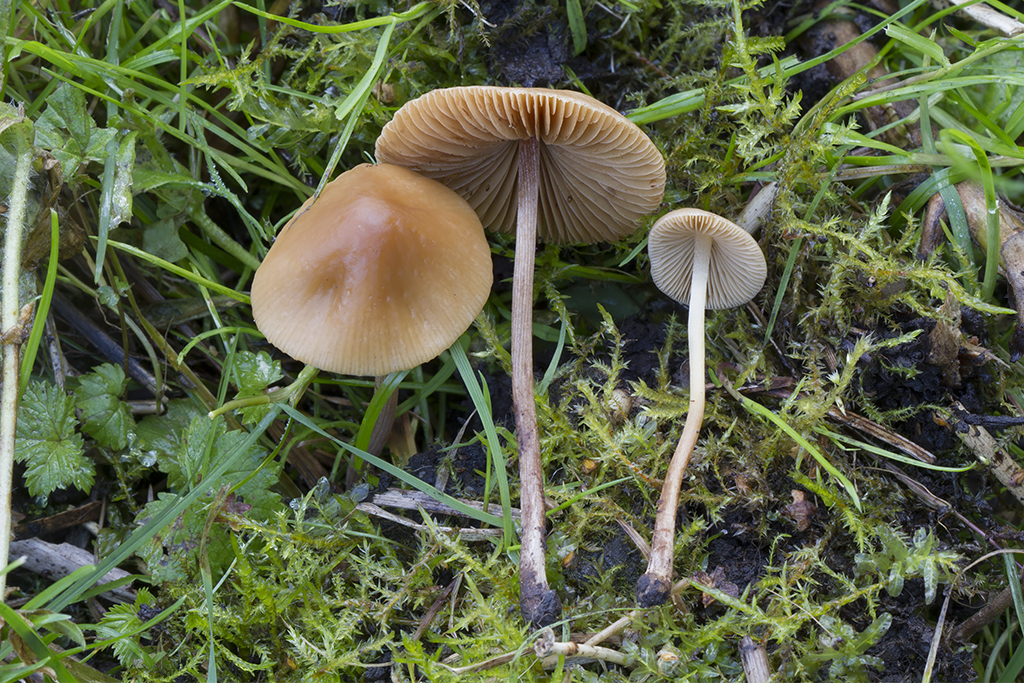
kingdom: Fungi
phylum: Basidiomycota
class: Agaricomycetes
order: Agaricales
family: Bolbitiaceae
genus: Conocybe
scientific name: Conocybe tenera
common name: rank keglehat
